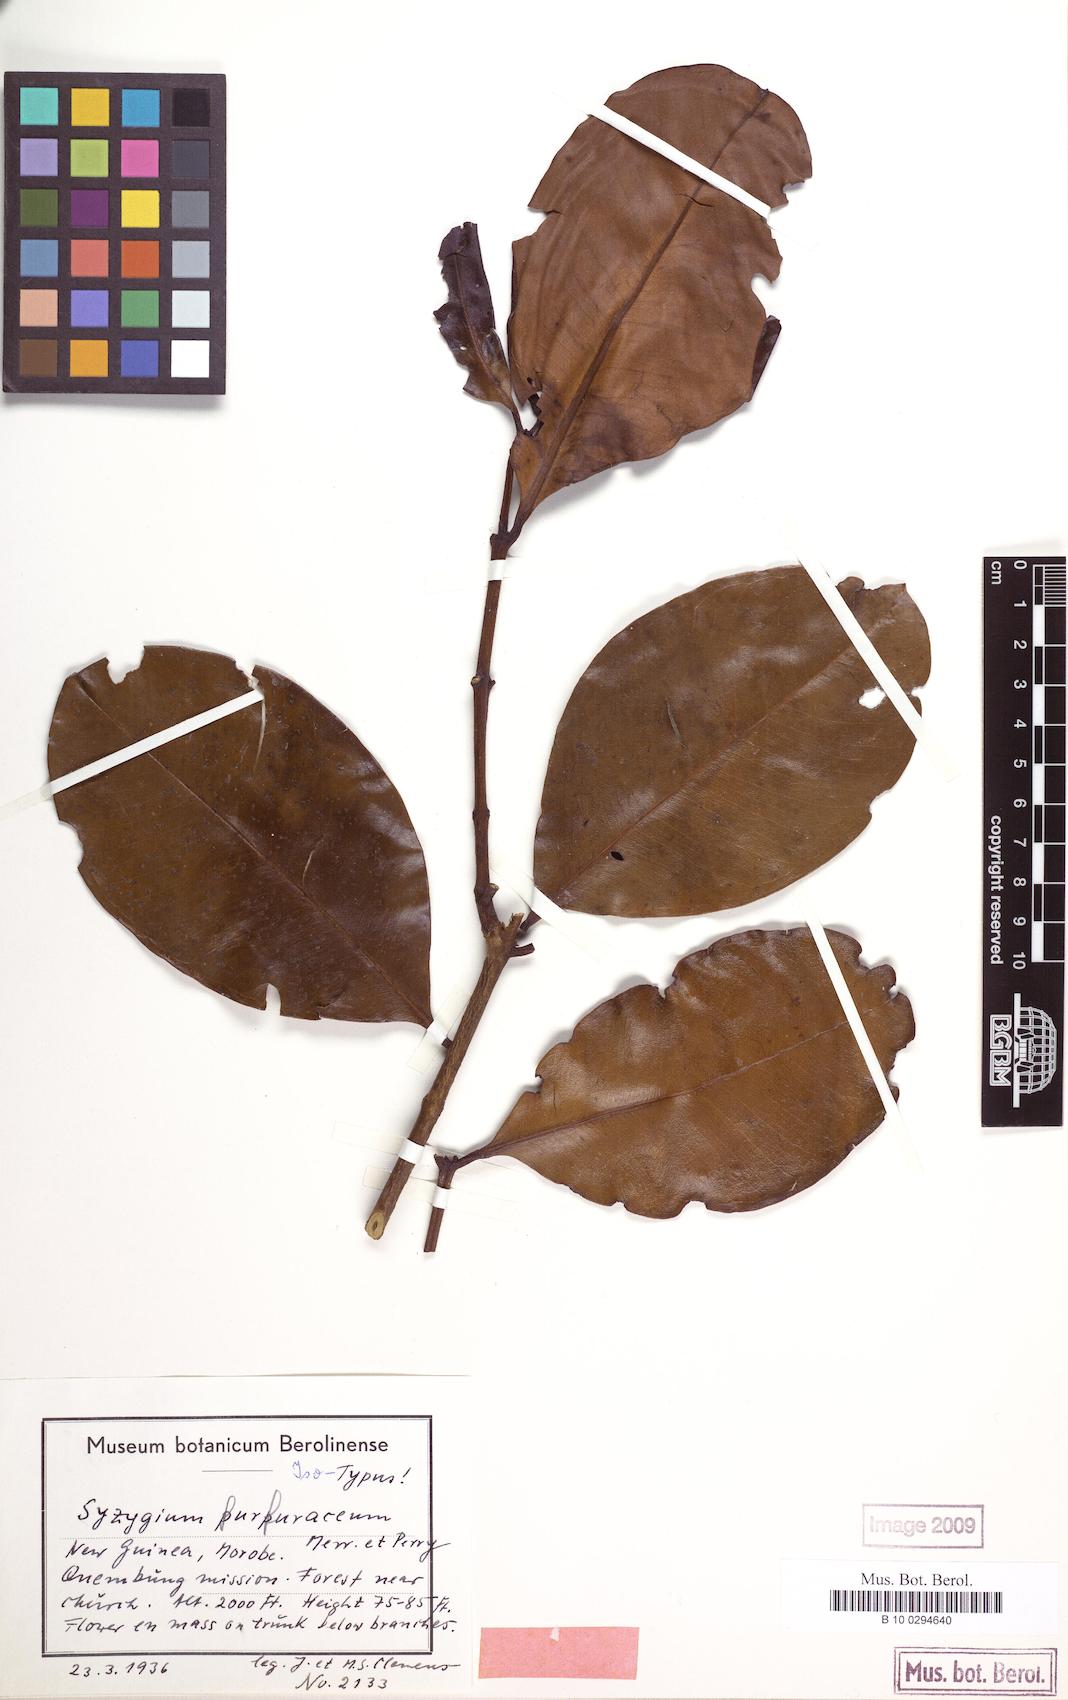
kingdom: Plantae
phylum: Tracheophyta
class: Magnoliopsida
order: Myrtales
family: Myrtaceae
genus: Syzygium
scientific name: Syzygium furfuraceum
